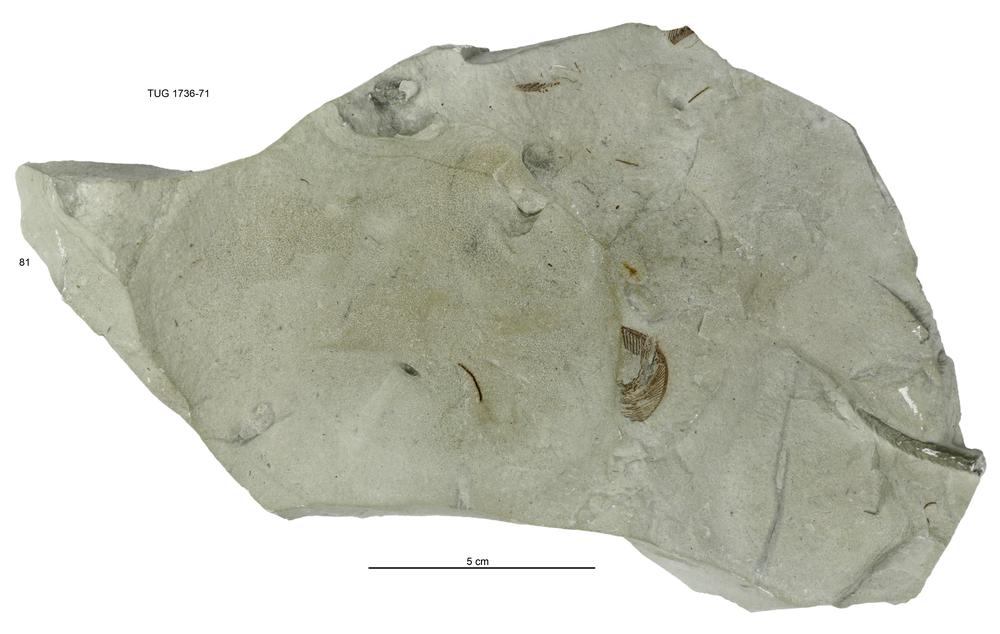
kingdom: Animalia
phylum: Echinodermata
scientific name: Echinodermata
